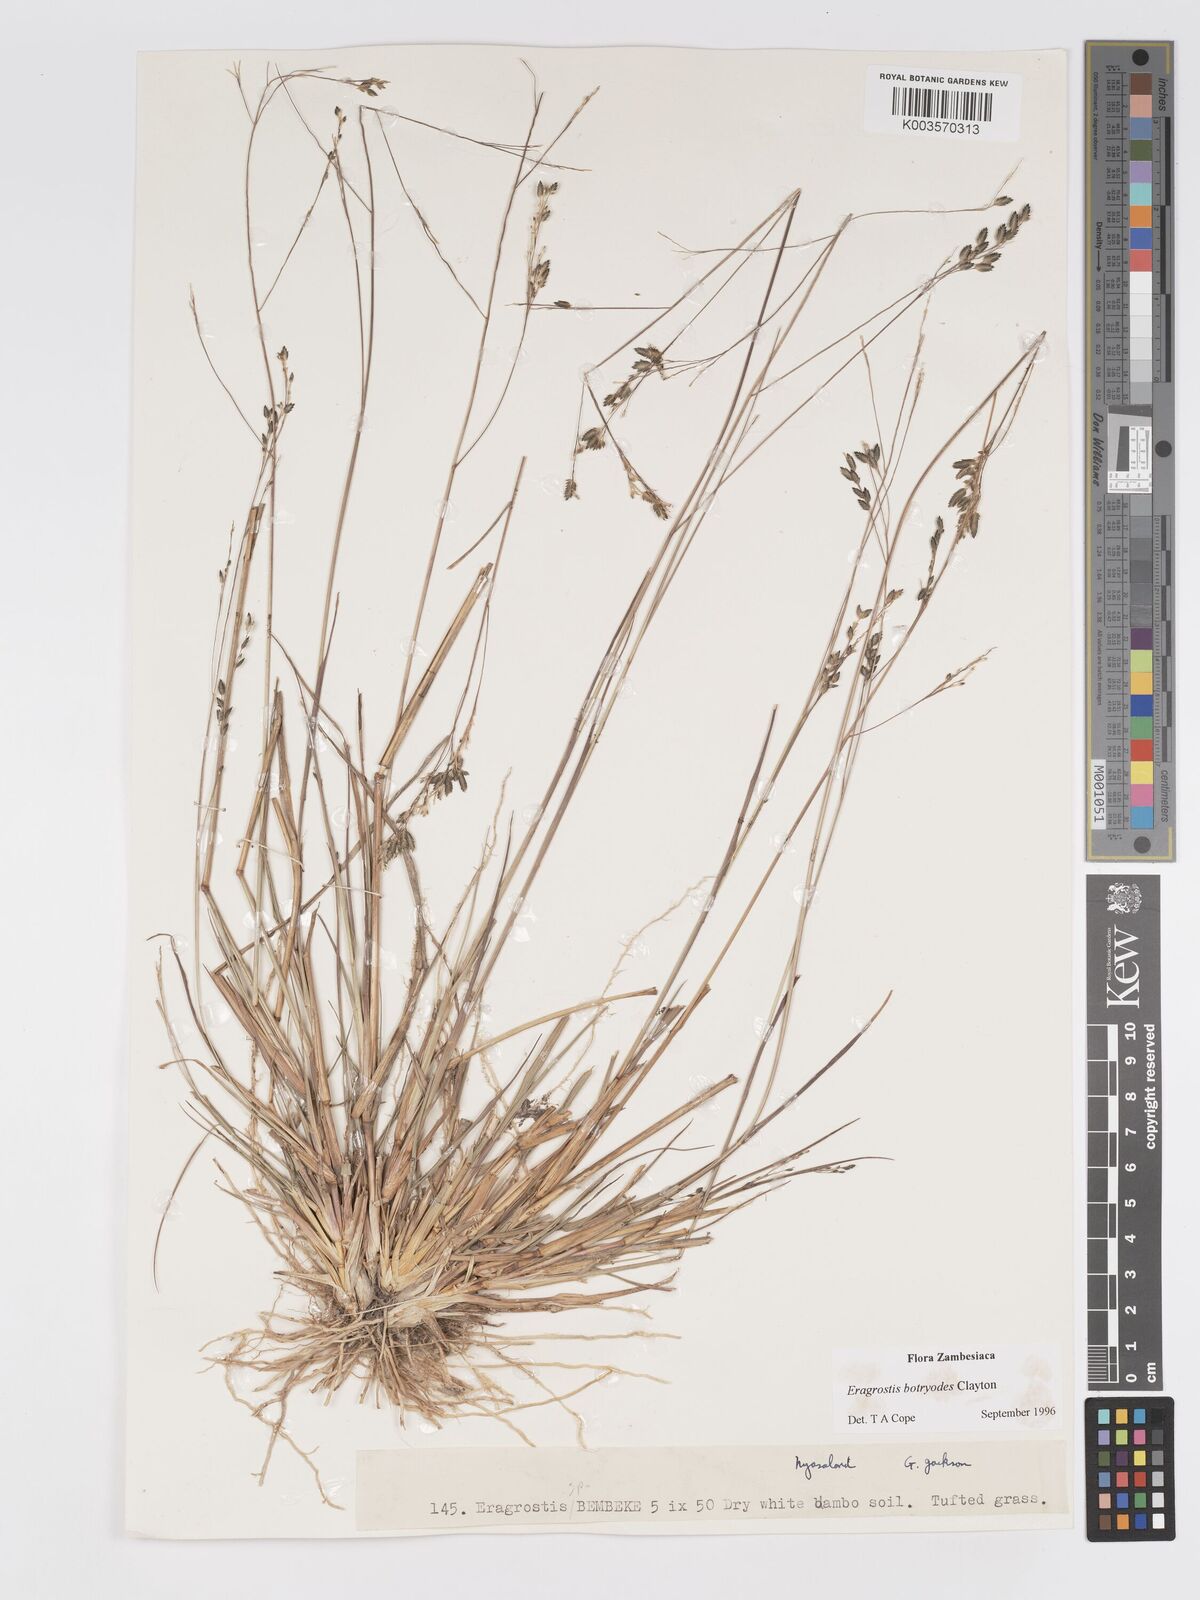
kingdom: Plantae
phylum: Tracheophyta
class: Liliopsida
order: Poales
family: Poaceae
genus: Eragrostis
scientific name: Eragrostis botryodes
